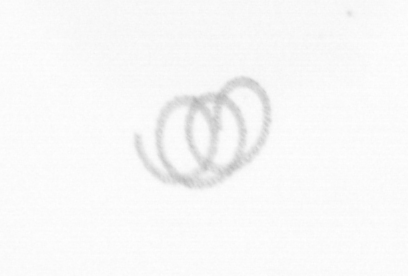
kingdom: Chromista
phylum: Ochrophyta
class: Bacillariophyceae
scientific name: Bacillariophyceae
